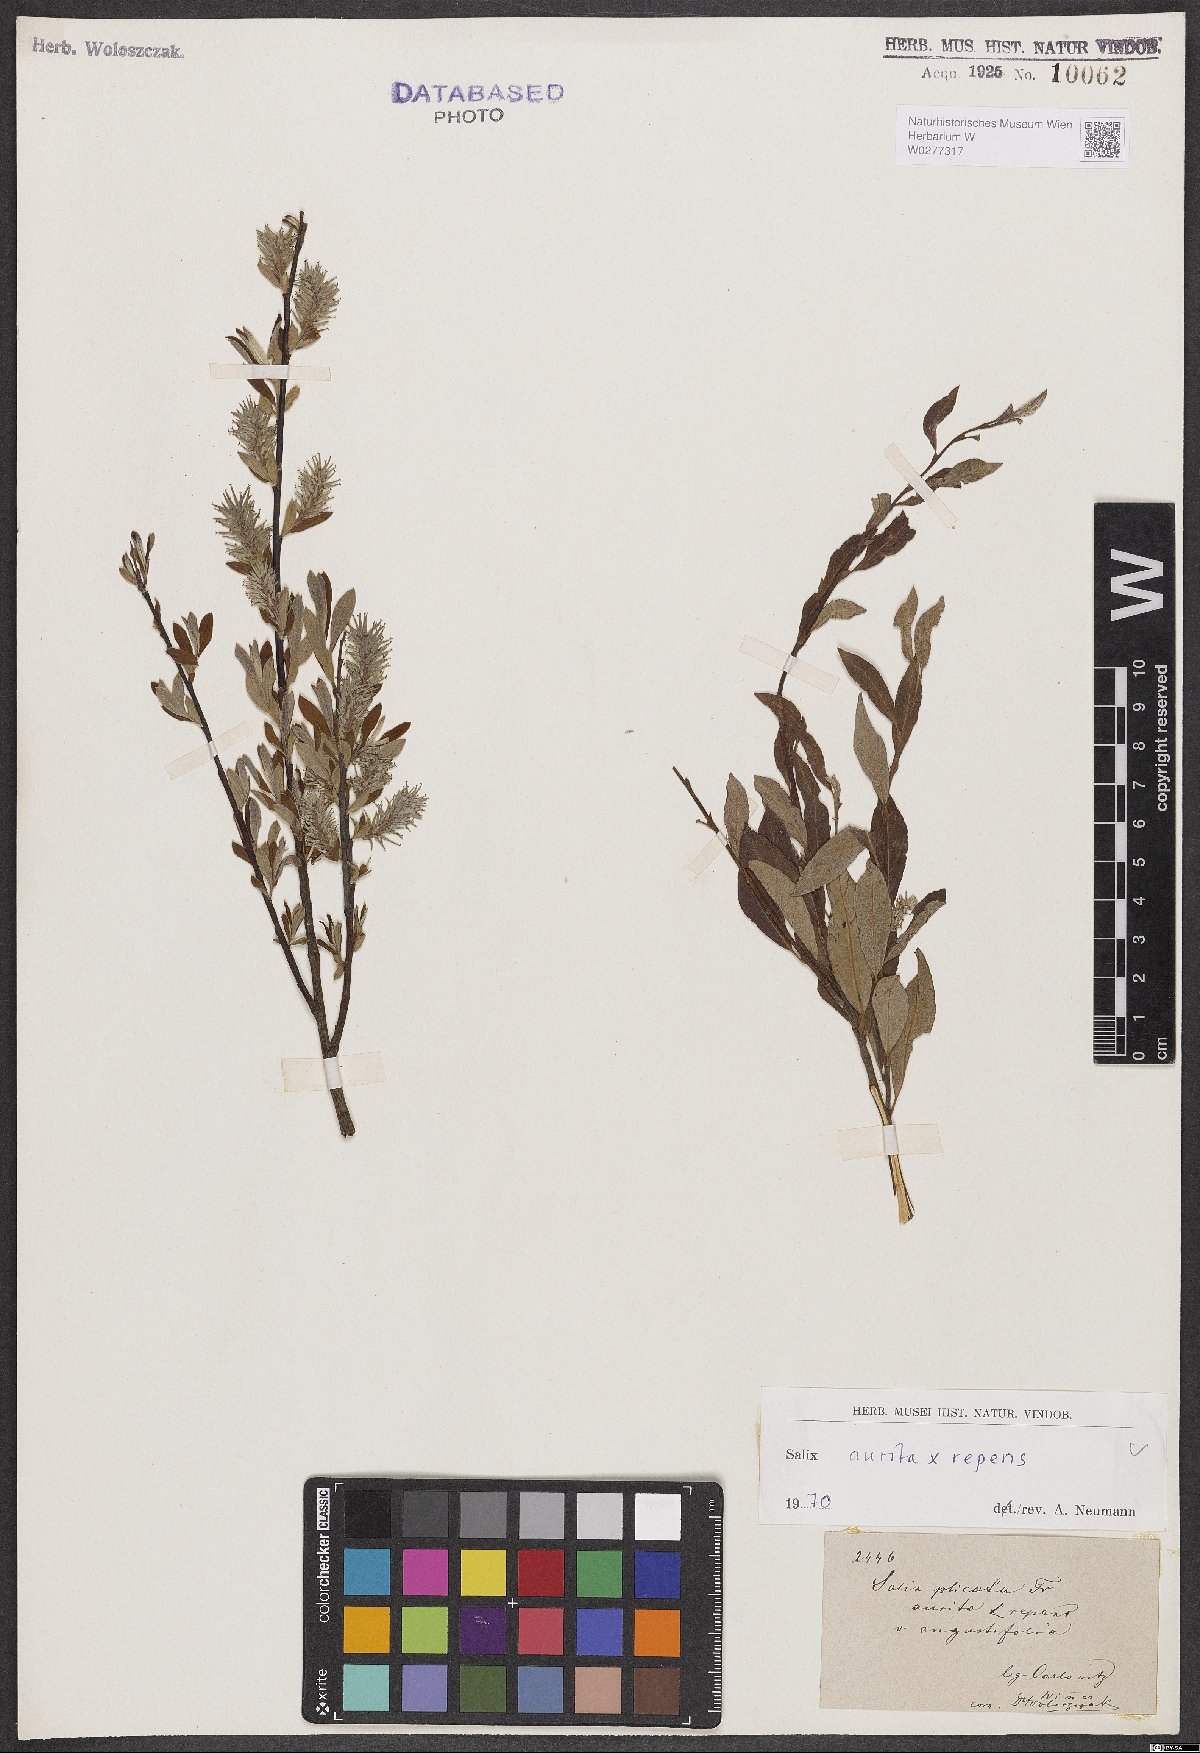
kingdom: Plantae
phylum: Tracheophyta
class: Magnoliopsida
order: Malpighiales
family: Salicaceae
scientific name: Salicaceae
